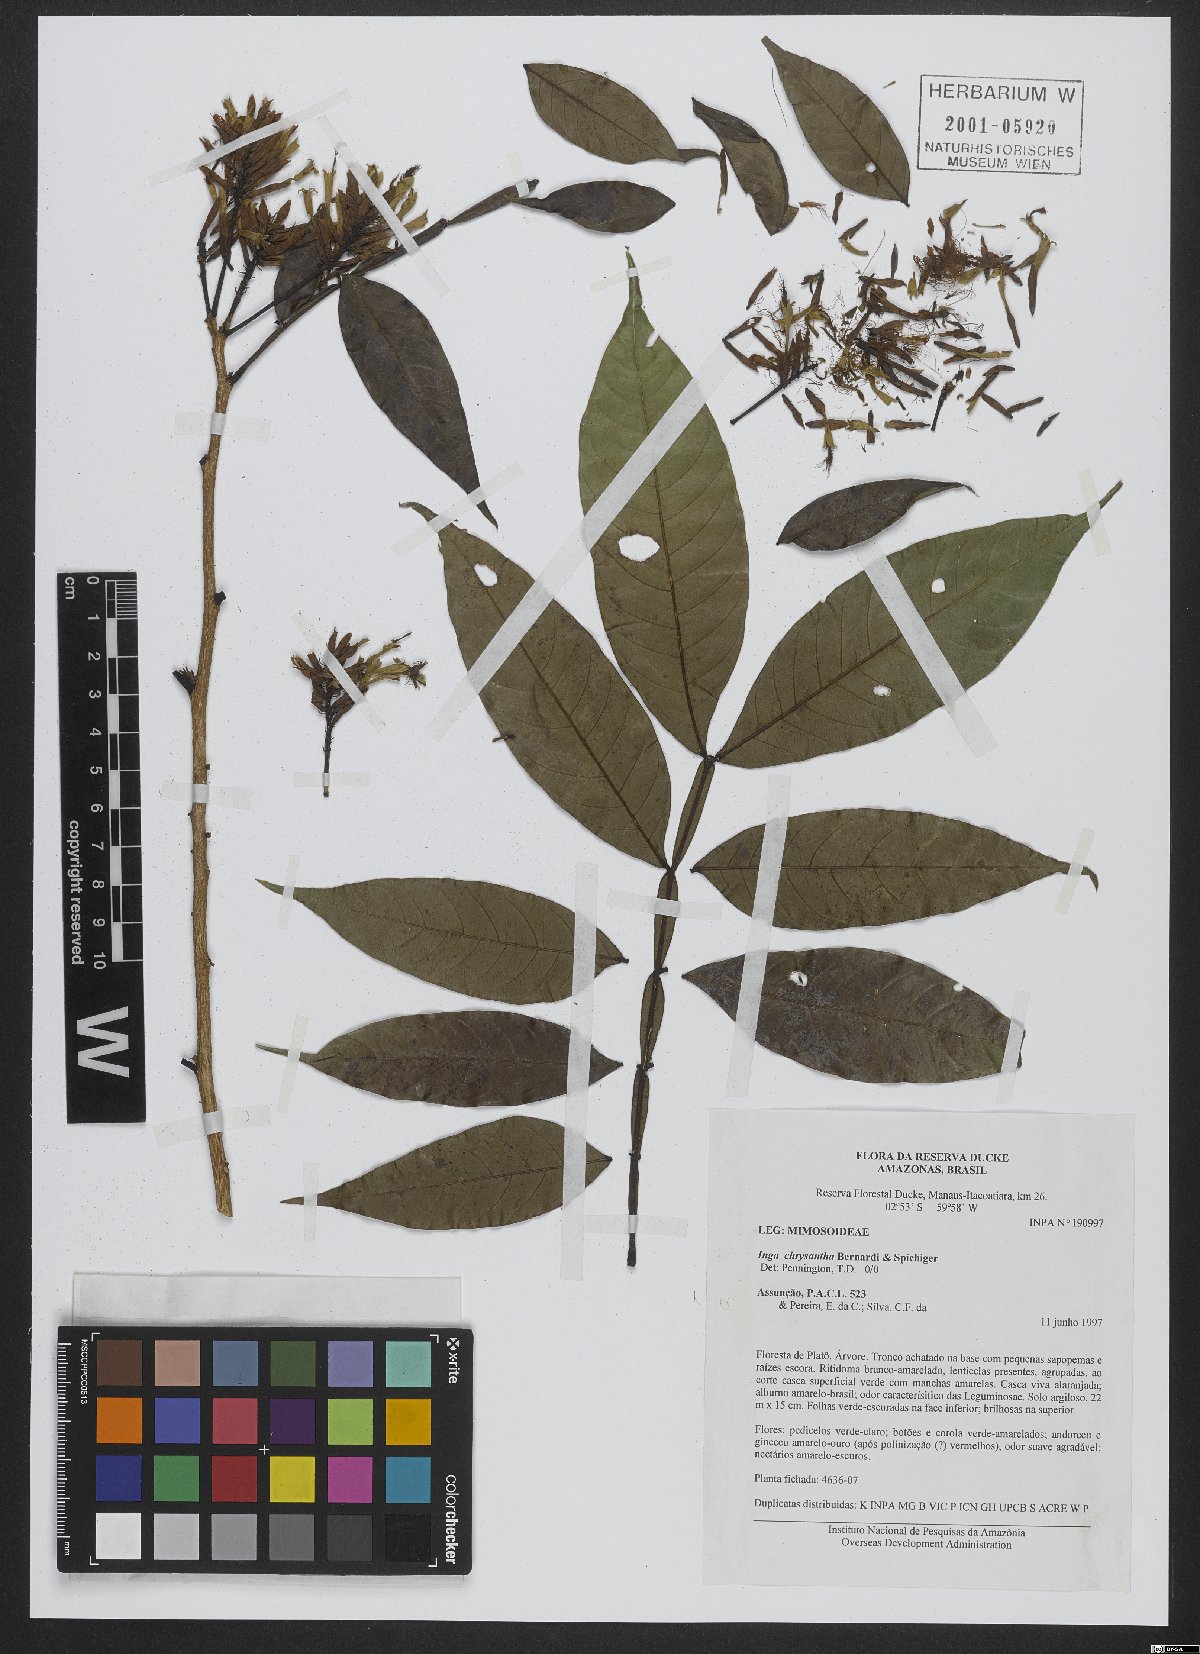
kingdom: Plantae
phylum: Tracheophyta
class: Magnoliopsida
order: Fabales
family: Fabaceae
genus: Inga
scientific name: Inga chrysantha
